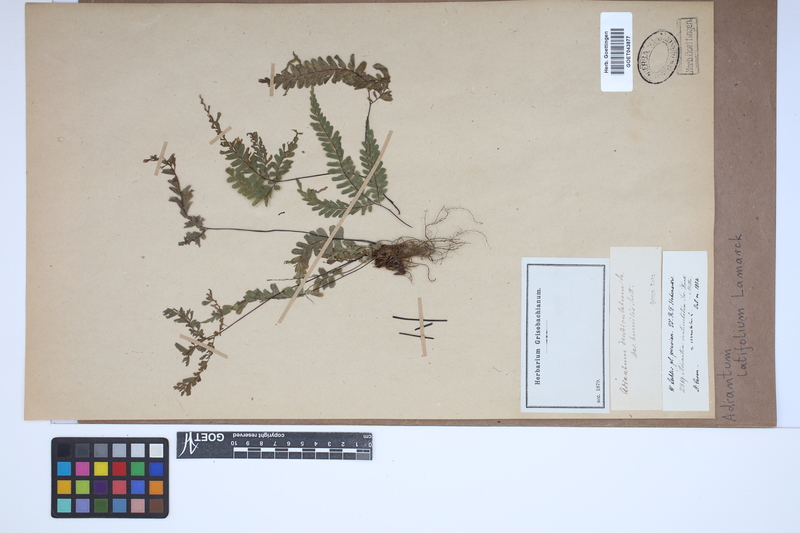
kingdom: Plantae
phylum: Tracheophyta
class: Polypodiopsida
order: Polypodiales
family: Pteridaceae
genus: Adiantum
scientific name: Adiantum latifolium
